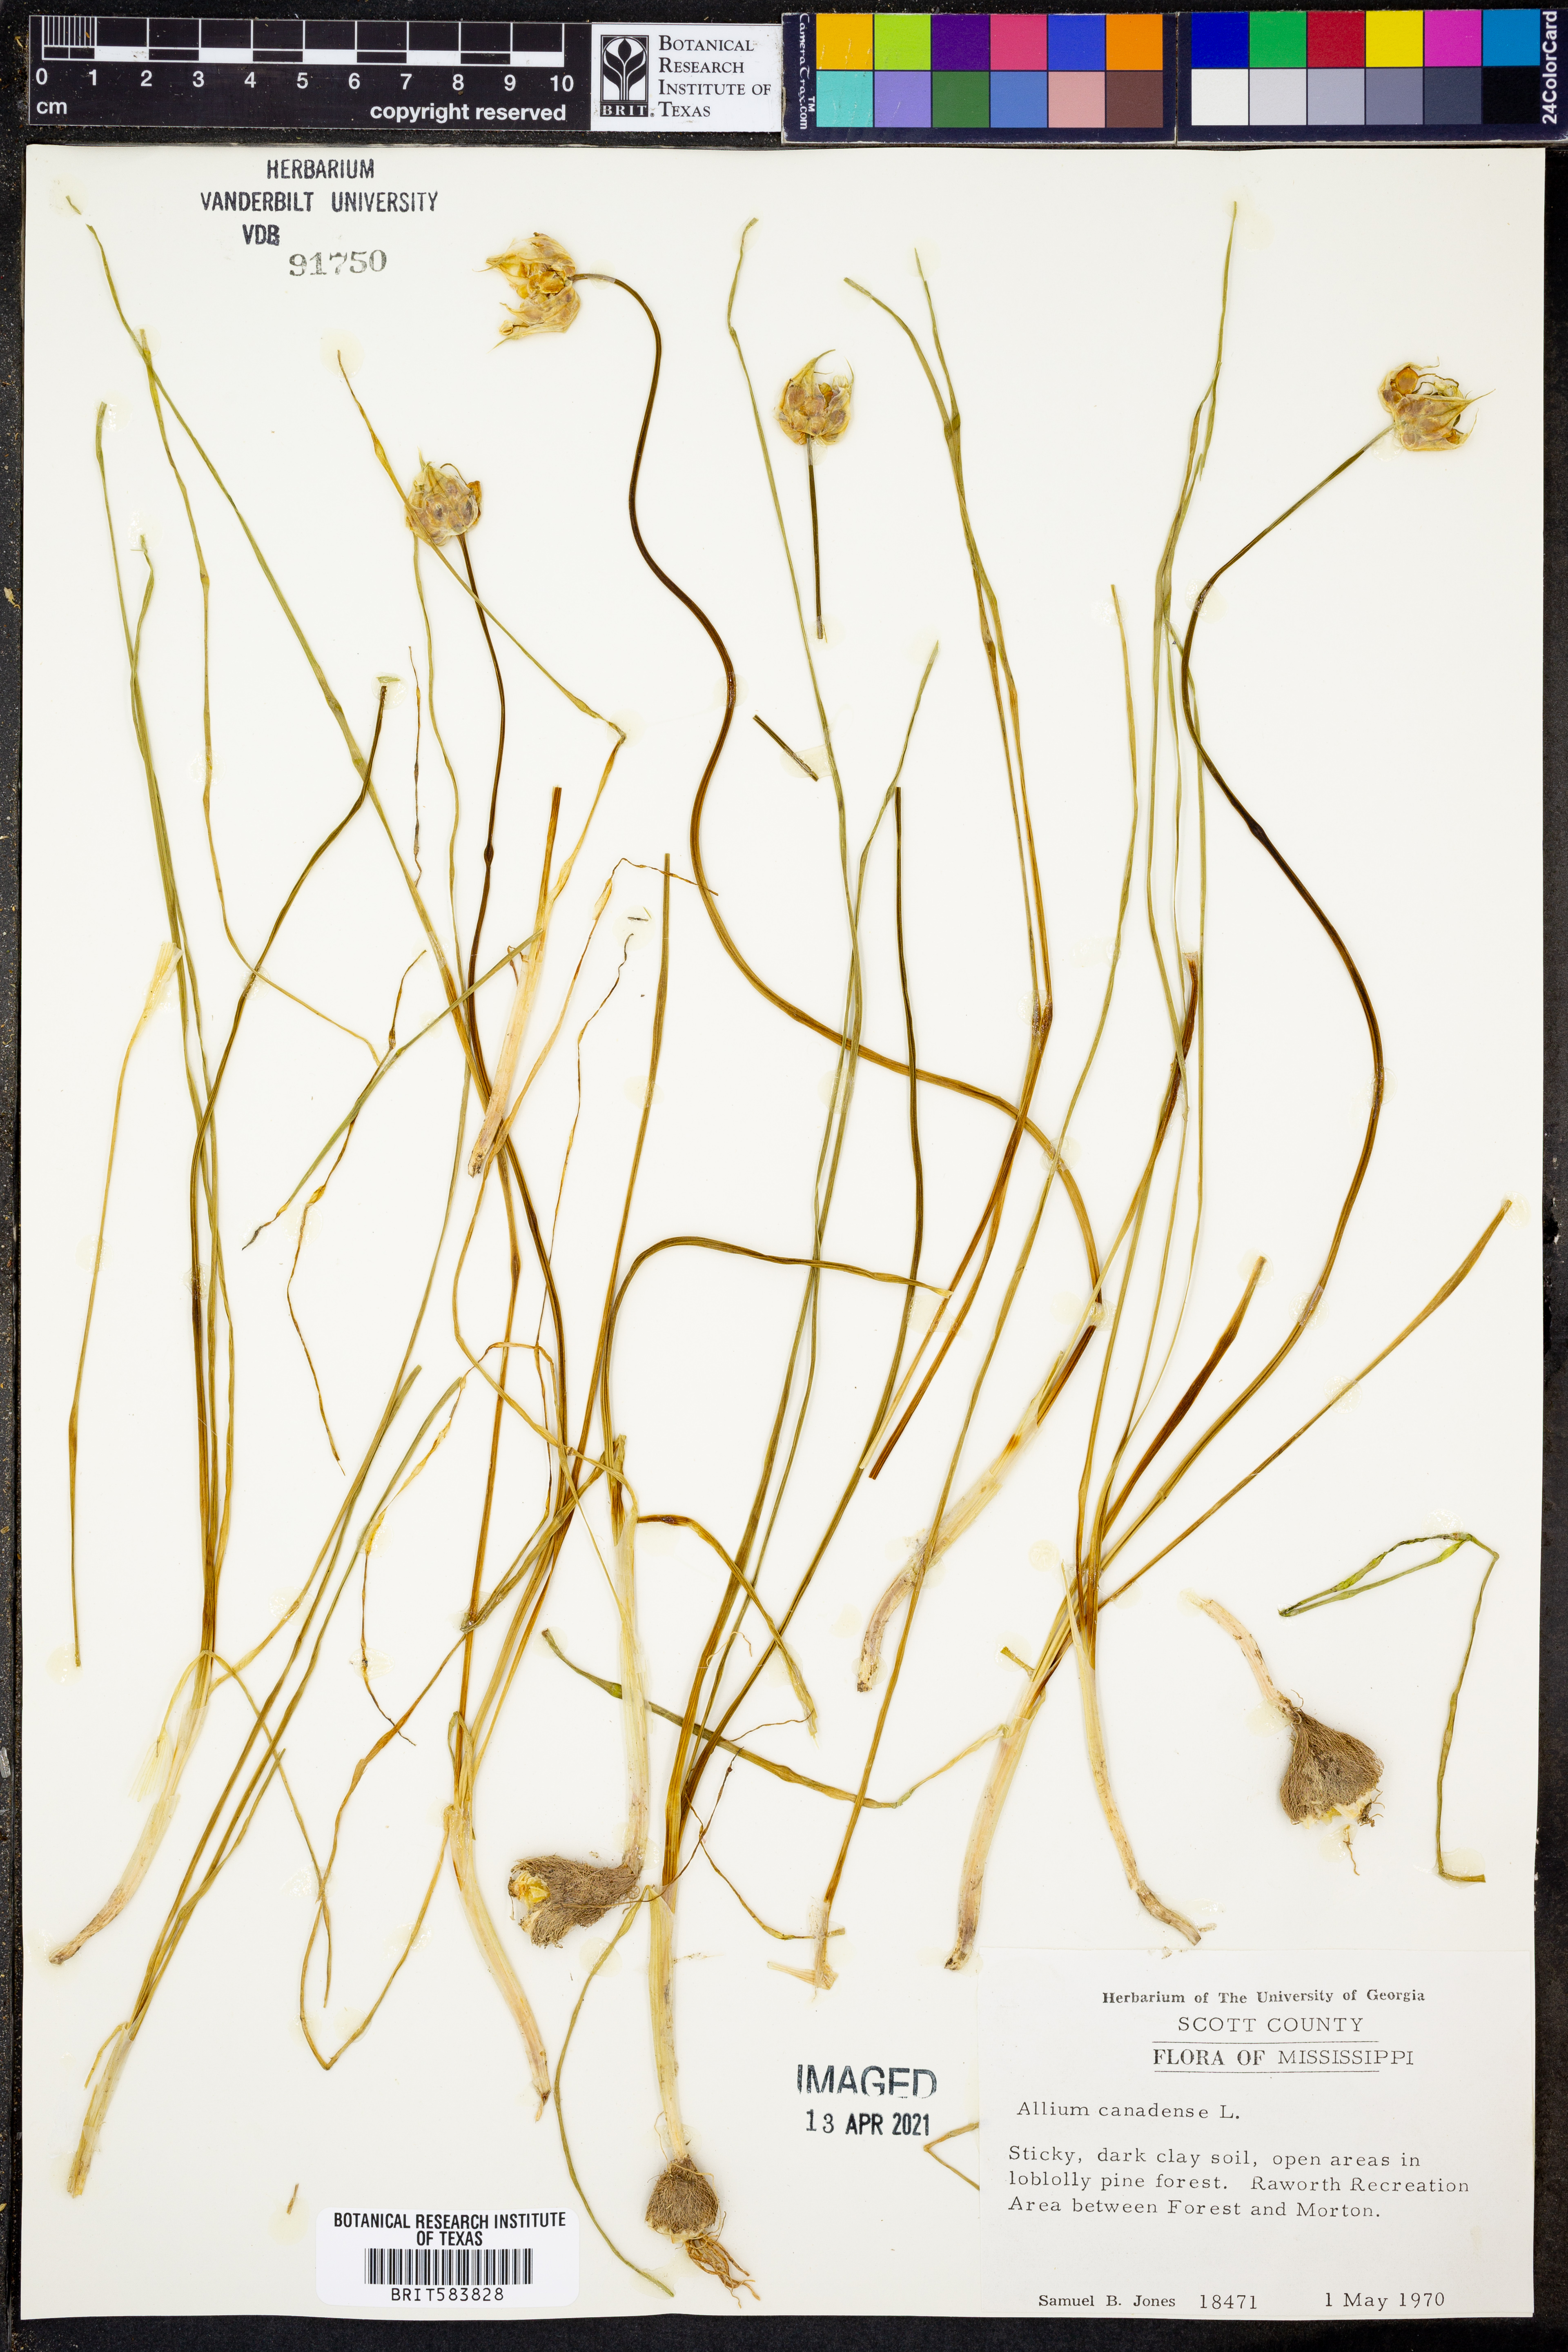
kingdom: Plantae
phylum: Tracheophyta
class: Liliopsida
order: Asparagales
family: Amaryllidaceae
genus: Allium
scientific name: Allium canadense
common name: Meadow garlic
